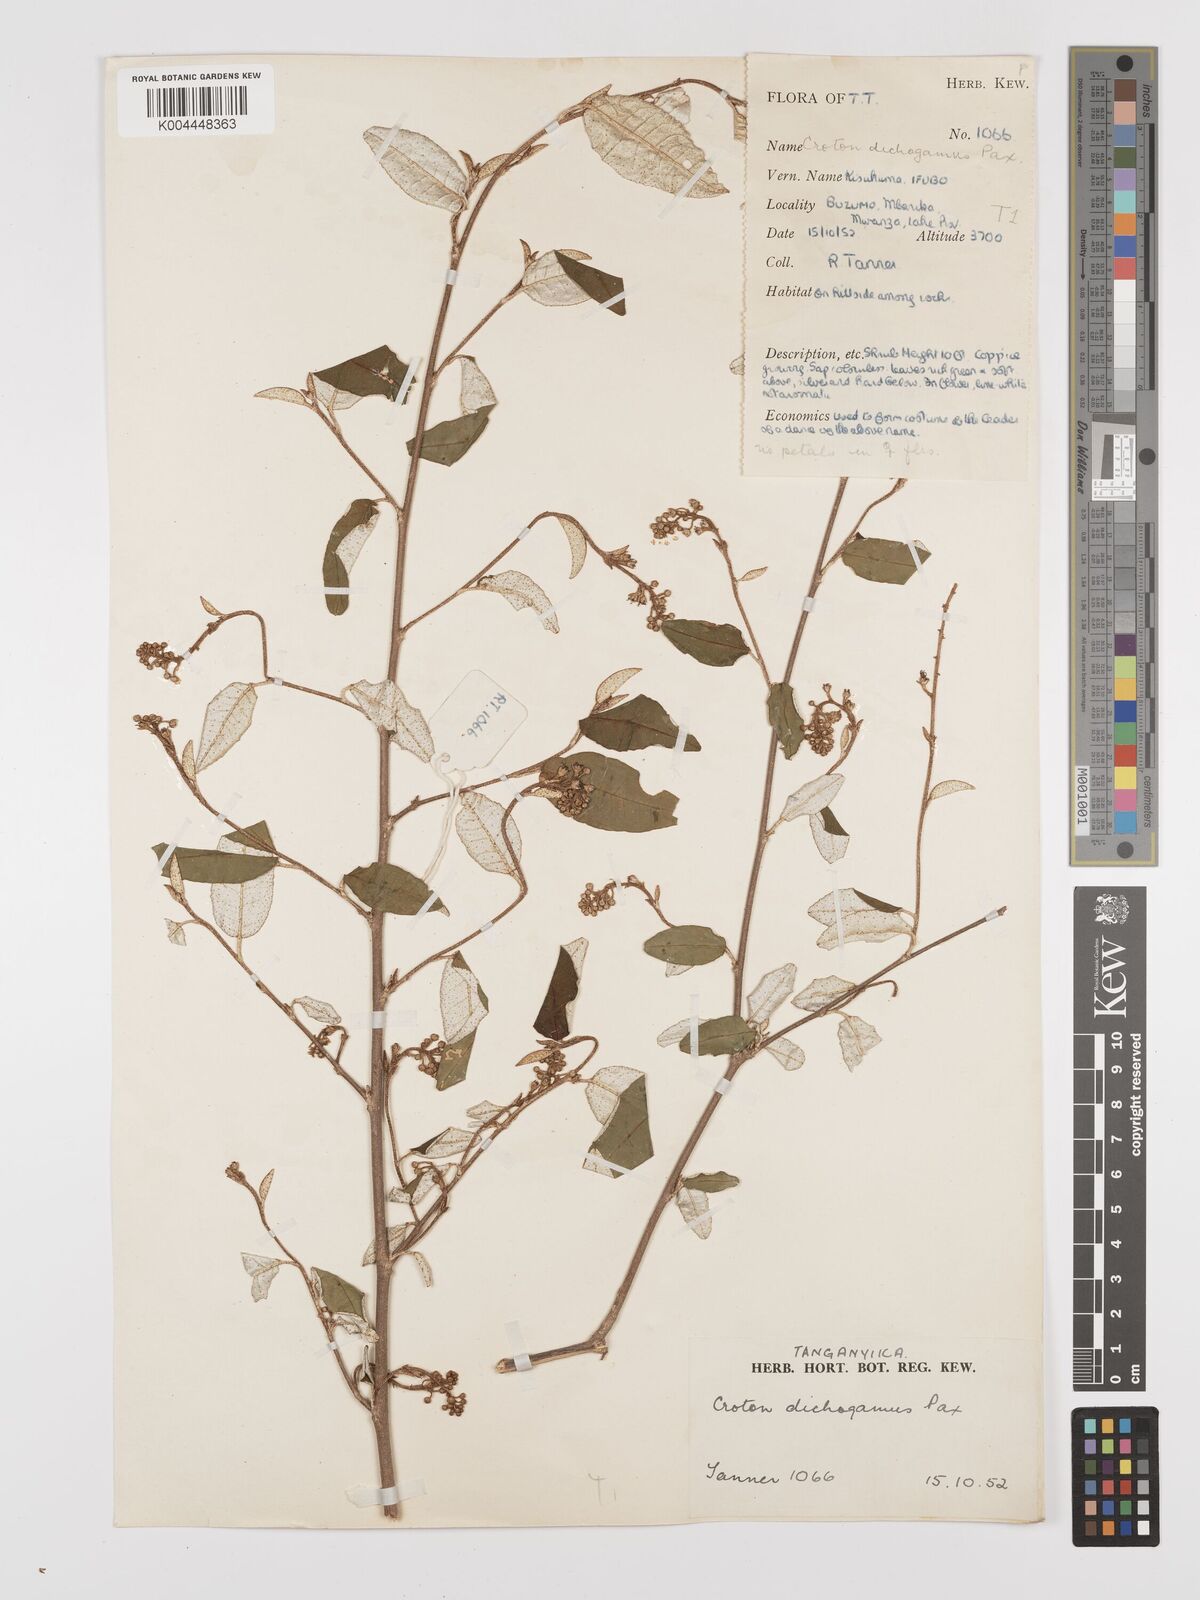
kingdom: Plantae
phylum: Tracheophyta
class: Magnoliopsida
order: Malpighiales
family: Euphorbiaceae
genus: Croton
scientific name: Croton dichogamus
